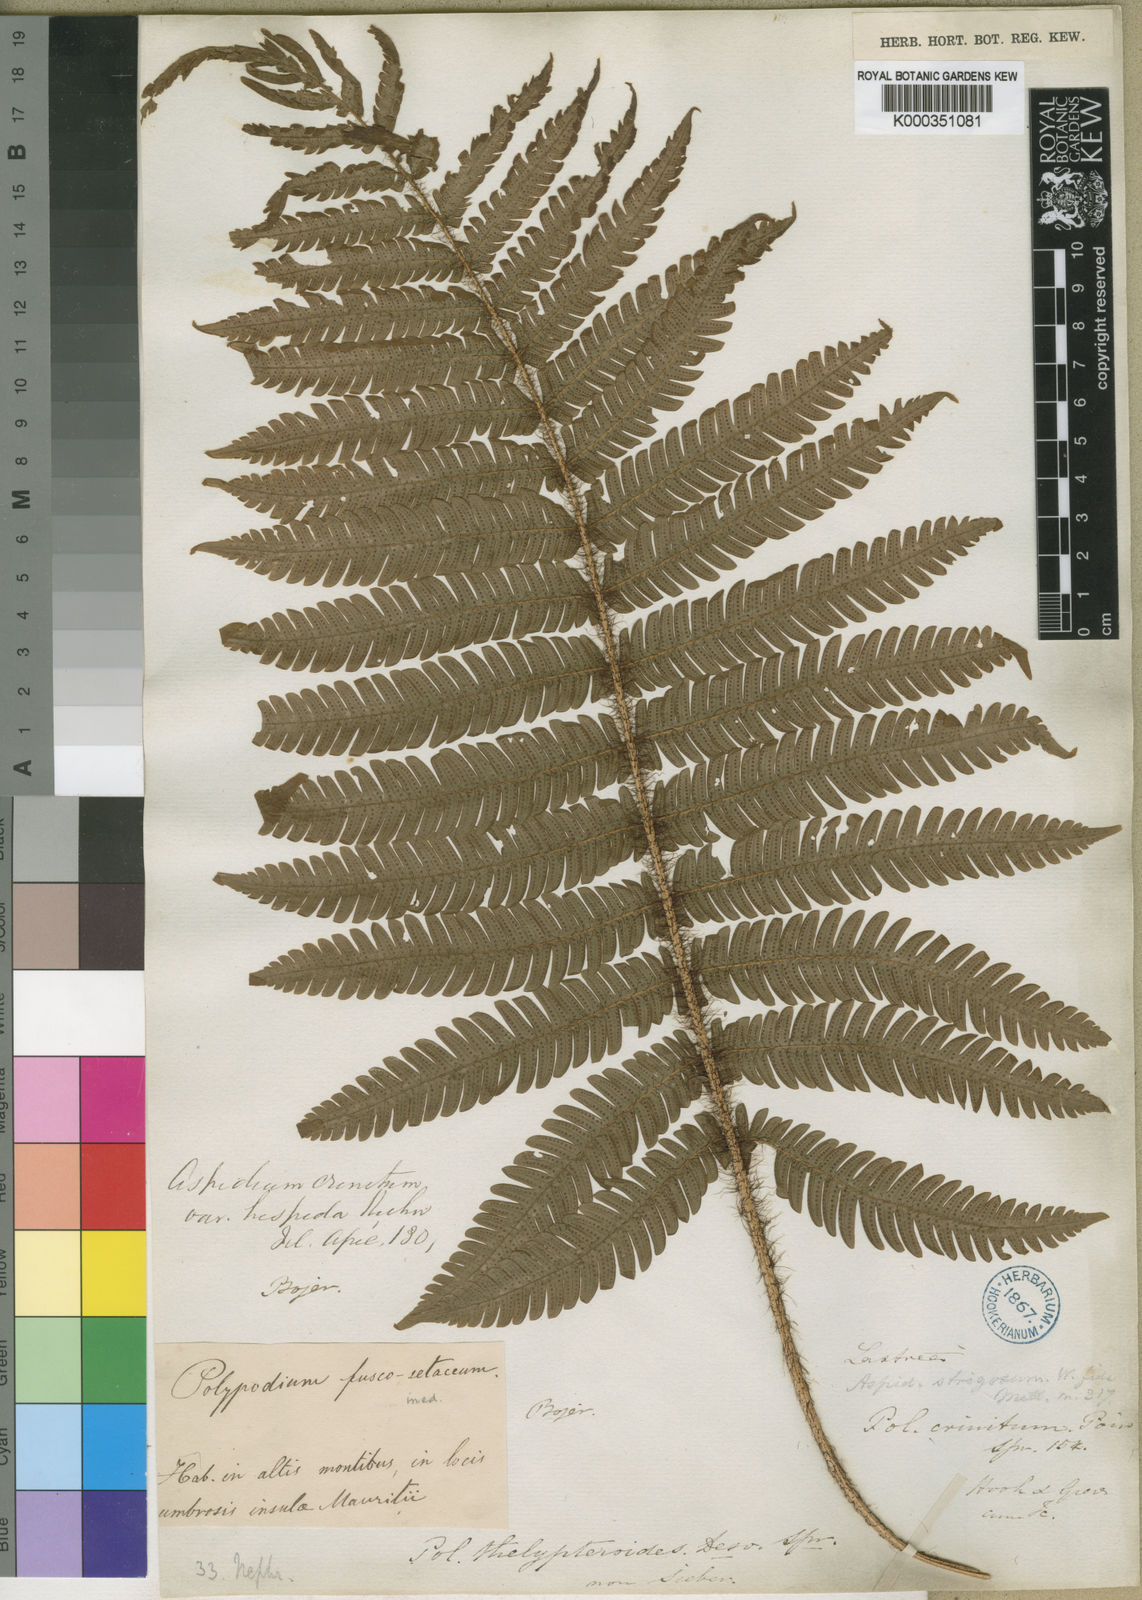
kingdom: Plantae
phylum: Tracheophyta
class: Polypodiopsida
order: Polypodiales
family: Dryopteridaceae
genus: Ctenitis
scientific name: Ctenitis crinita
